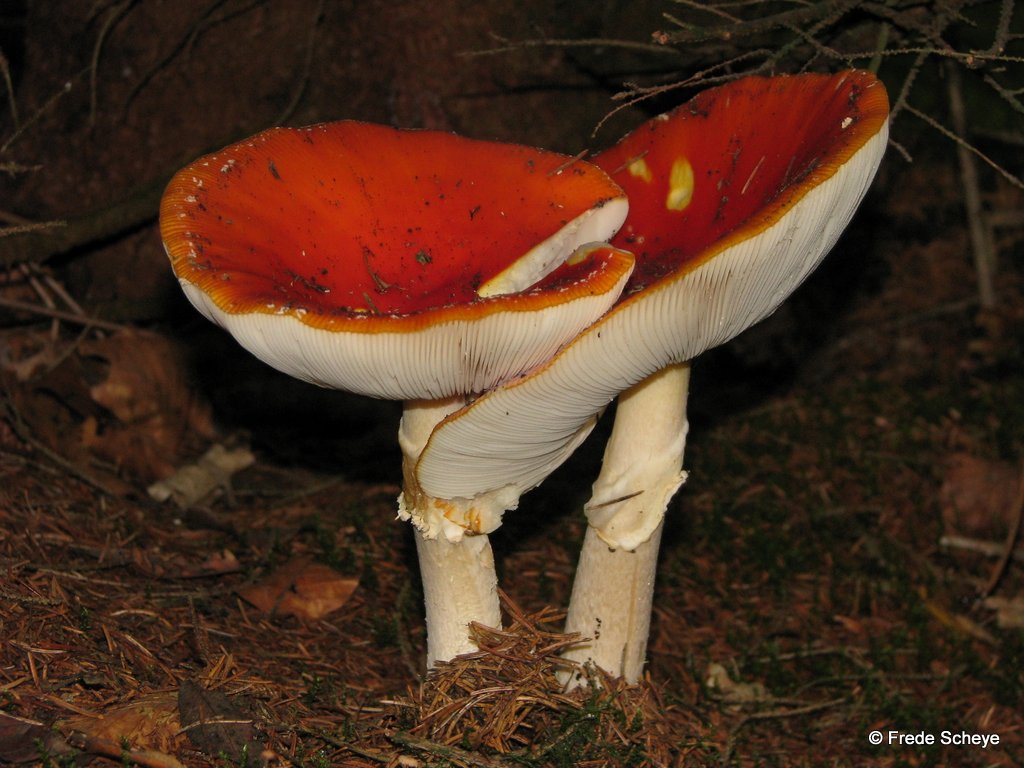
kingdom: Fungi
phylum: Basidiomycota
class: Agaricomycetes
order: Agaricales
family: Amanitaceae
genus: Amanita
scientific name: Amanita muscaria
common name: rød fluesvamp
